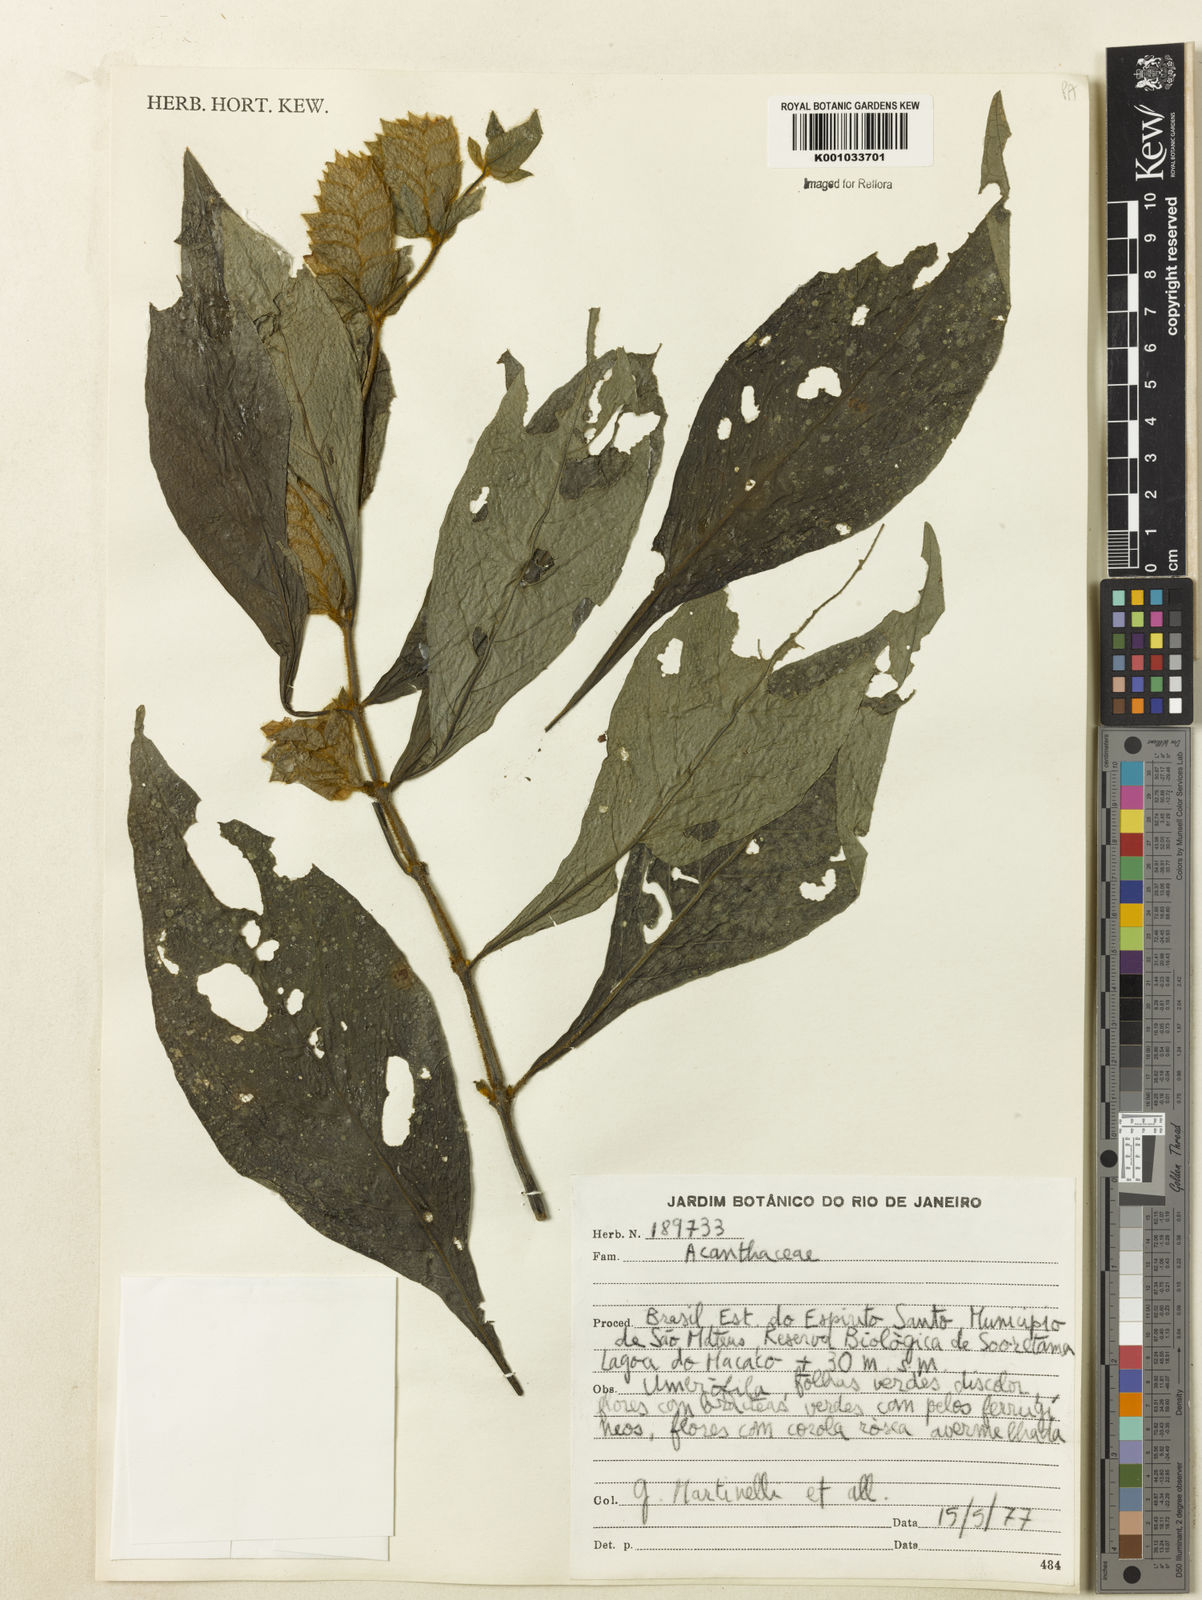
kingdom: Plantae
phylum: Tracheophyta
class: Magnoliopsida
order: Lamiales
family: Acanthaceae
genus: Justicia
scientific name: Justicia
